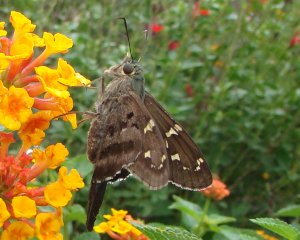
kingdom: Animalia
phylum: Arthropoda
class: Insecta
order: Lepidoptera
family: Hesperiidae
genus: Urbanus
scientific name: Urbanus proteus
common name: Long-tailed Skipper
